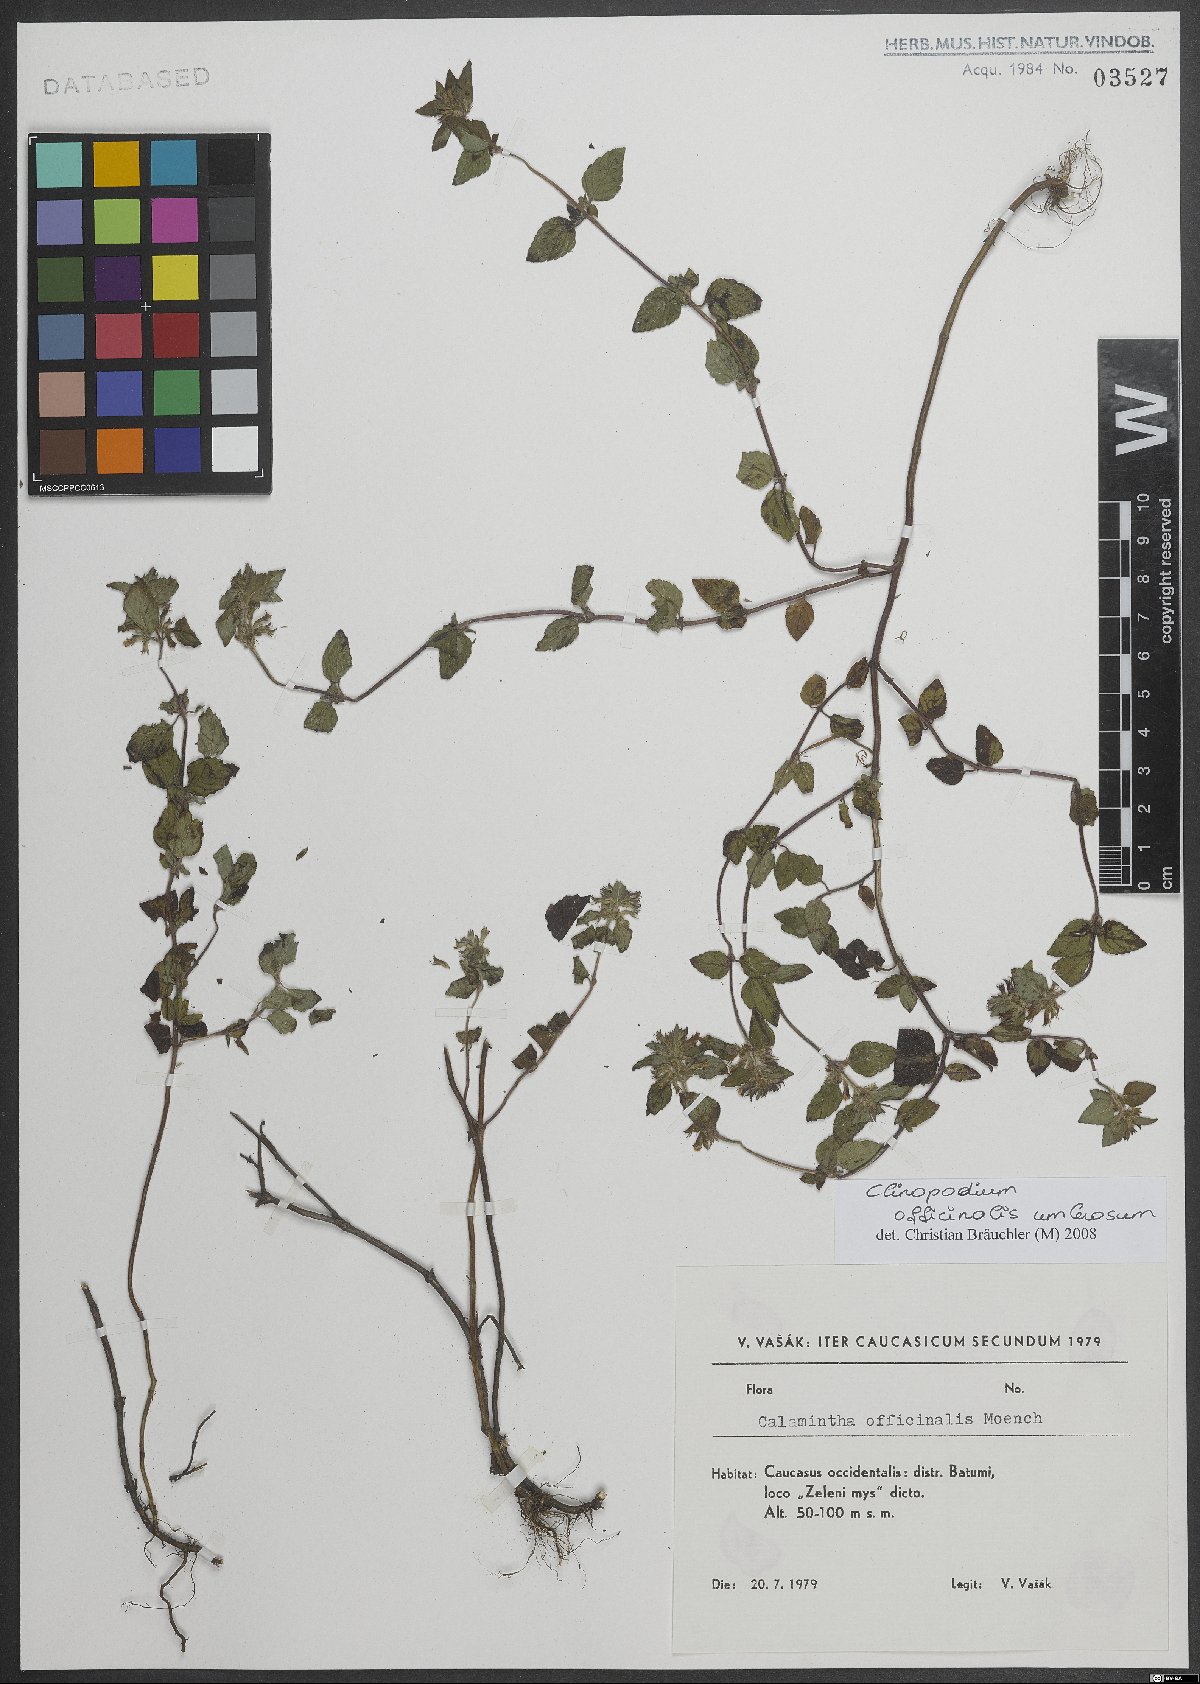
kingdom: Plantae
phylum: Tracheophyta
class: Magnoliopsida
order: Lamiales
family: Lamiaceae
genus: Clinopodium
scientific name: Clinopodium nepeta
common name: Lesser calamint
